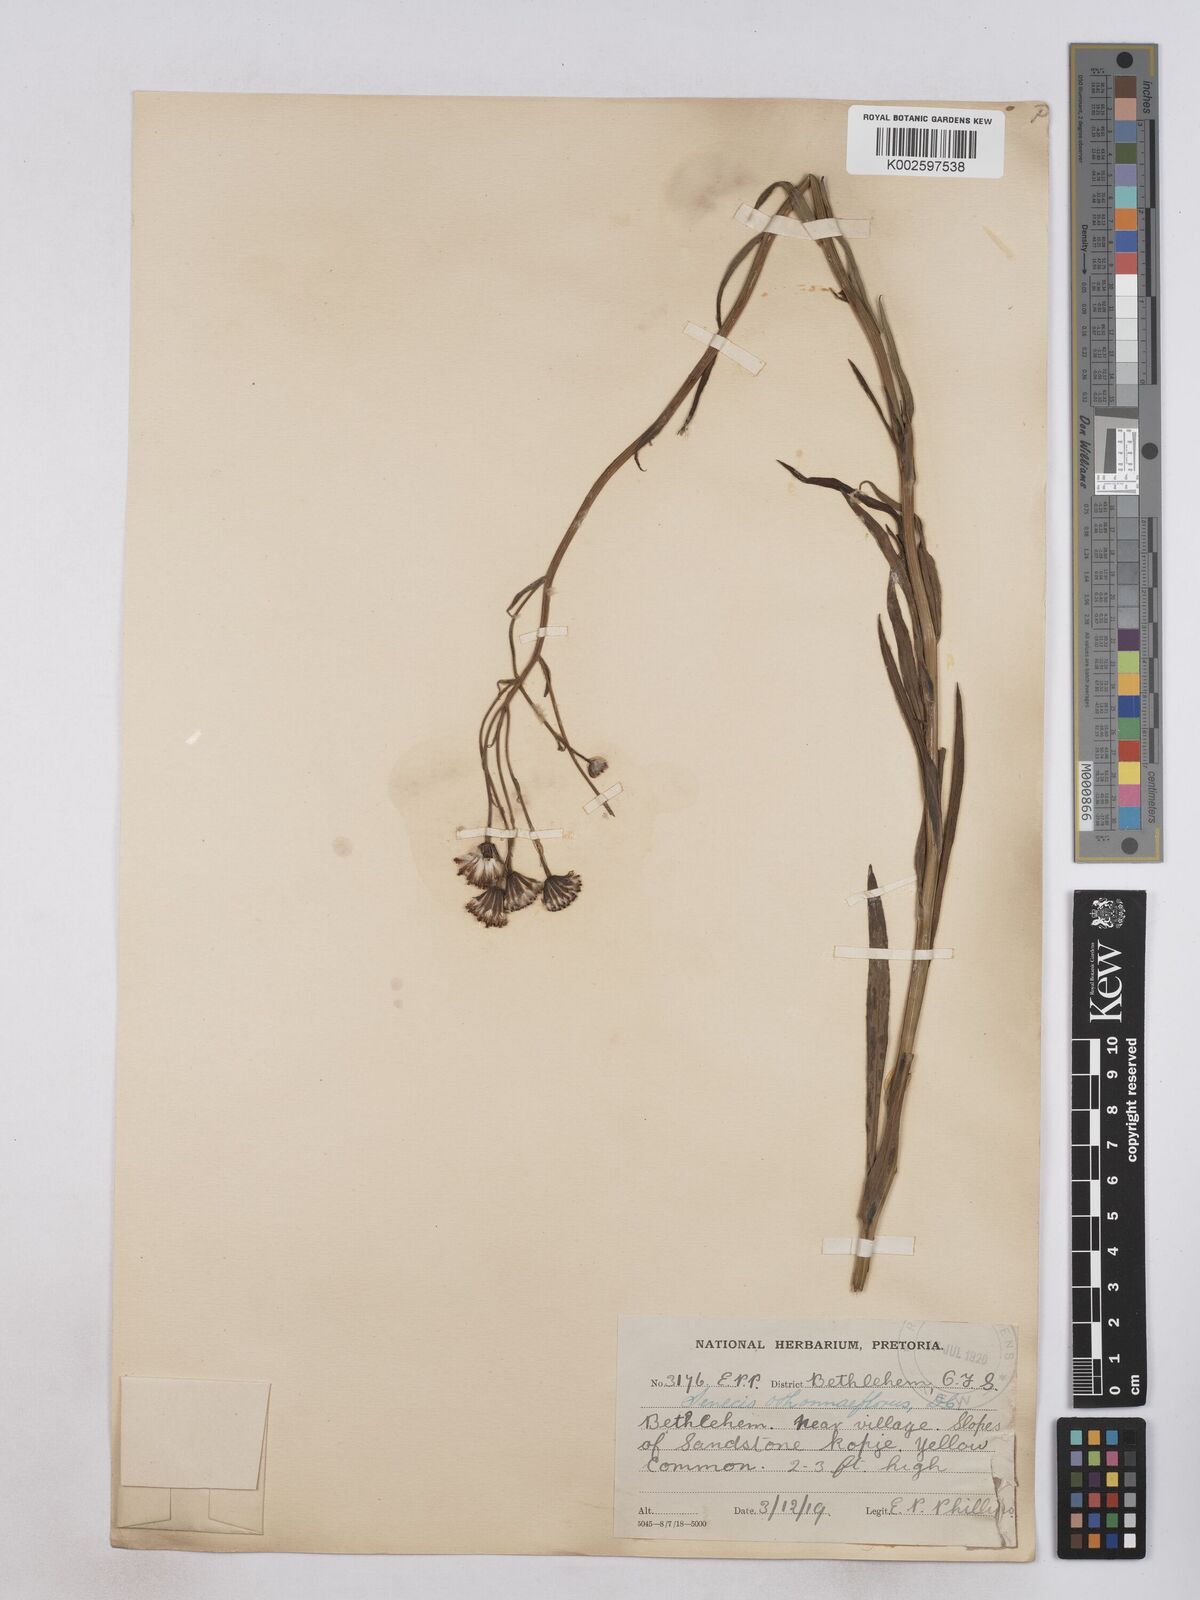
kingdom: Plantae
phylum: Tracheophyta
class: Magnoliopsida
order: Asterales
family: Asteraceae
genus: Senecio
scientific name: Senecio othonniflorus
